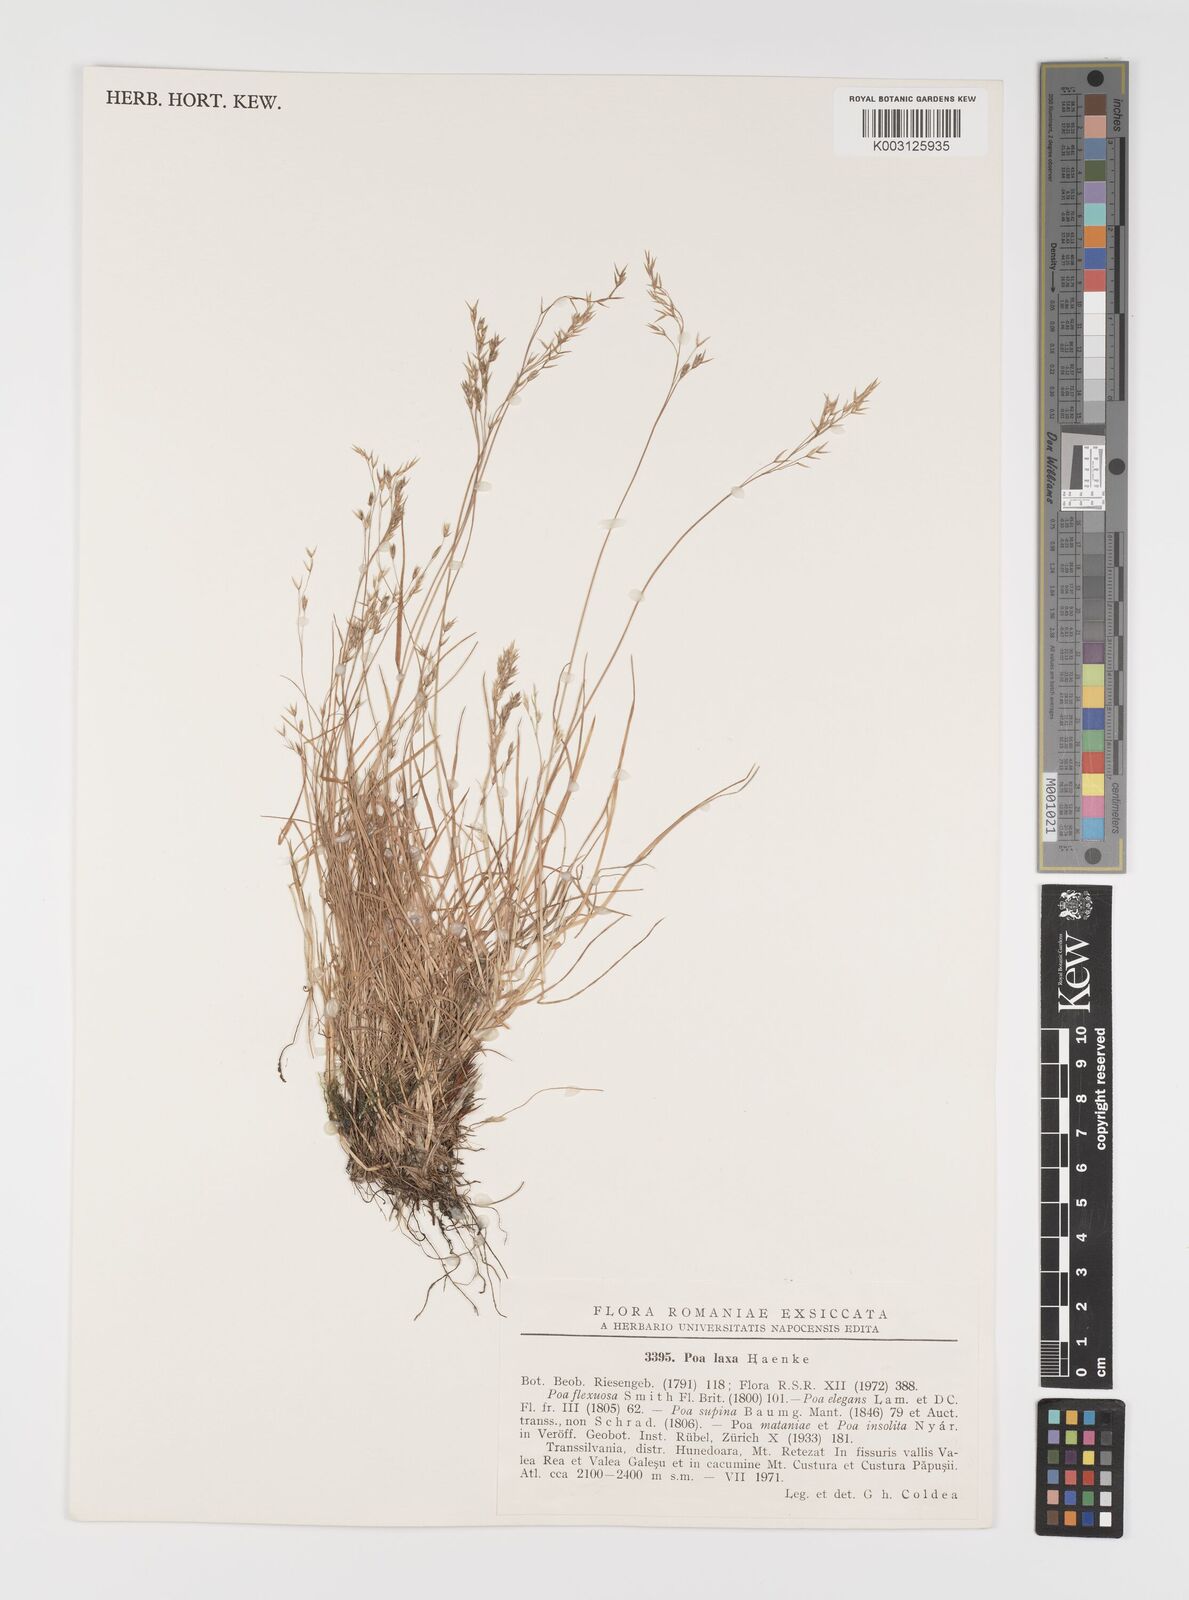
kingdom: Plantae
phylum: Tracheophyta
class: Liliopsida
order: Poales
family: Poaceae
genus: Poa
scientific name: Poa laxa
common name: Lax bluegrass
